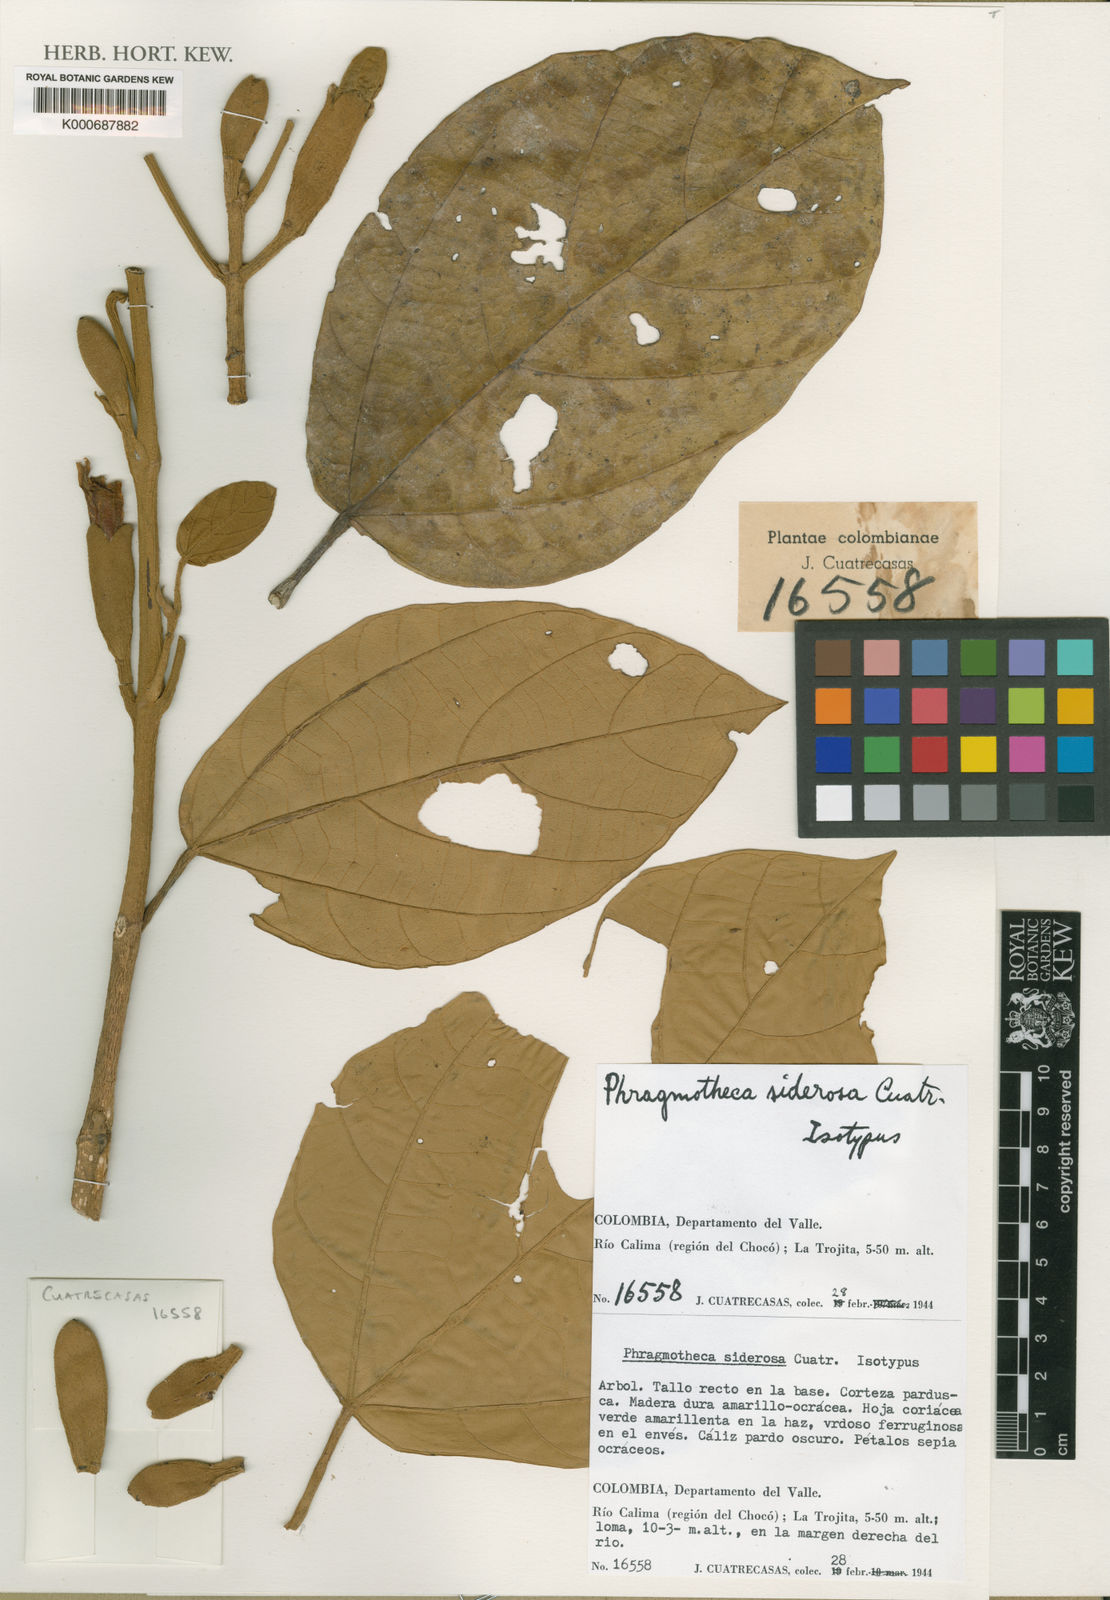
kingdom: Plantae
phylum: Tracheophyta
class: Magnoliopsida
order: Malvales
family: Malvaceae
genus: Phragmotheca
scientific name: Phragmotheca siderosa
